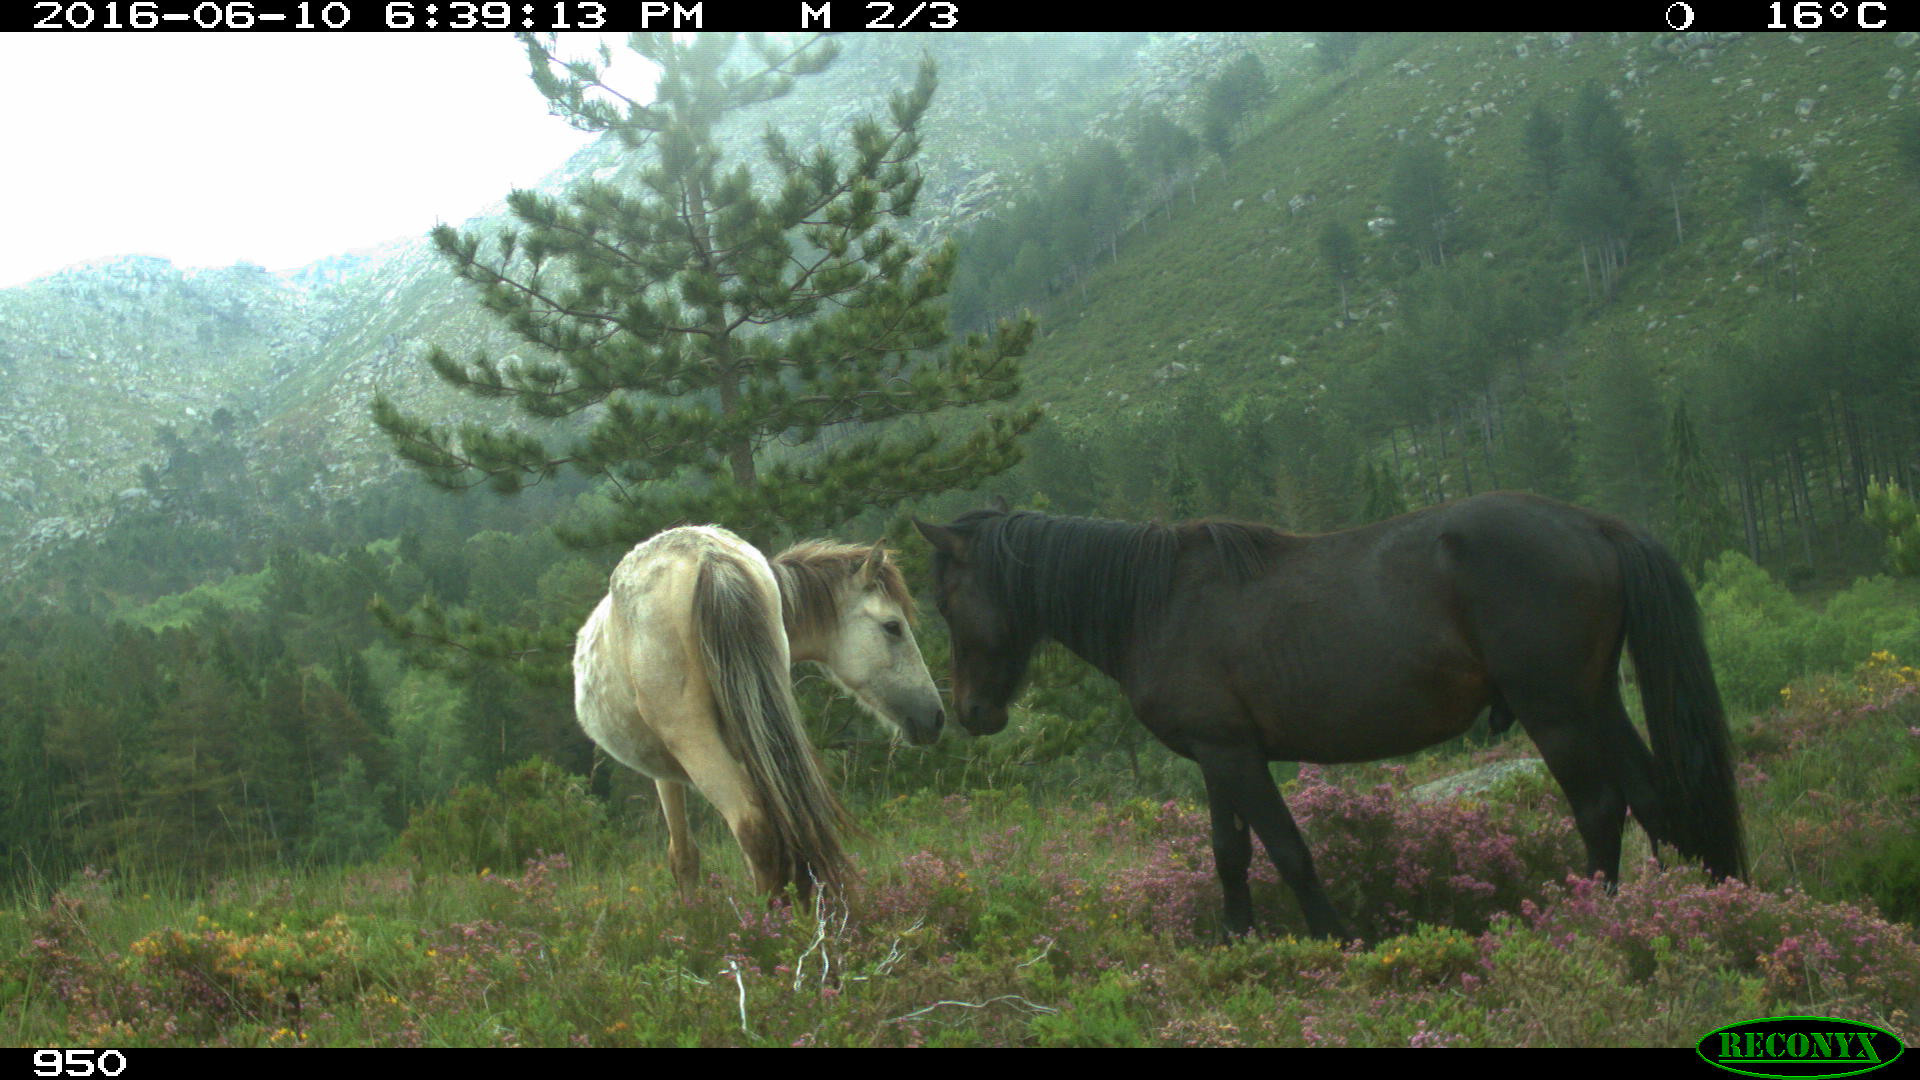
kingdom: Animalia
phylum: Chordata
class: Mammalia
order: Perissodactyla
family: Equidae
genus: Equus
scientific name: Equus caballus
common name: Horse
